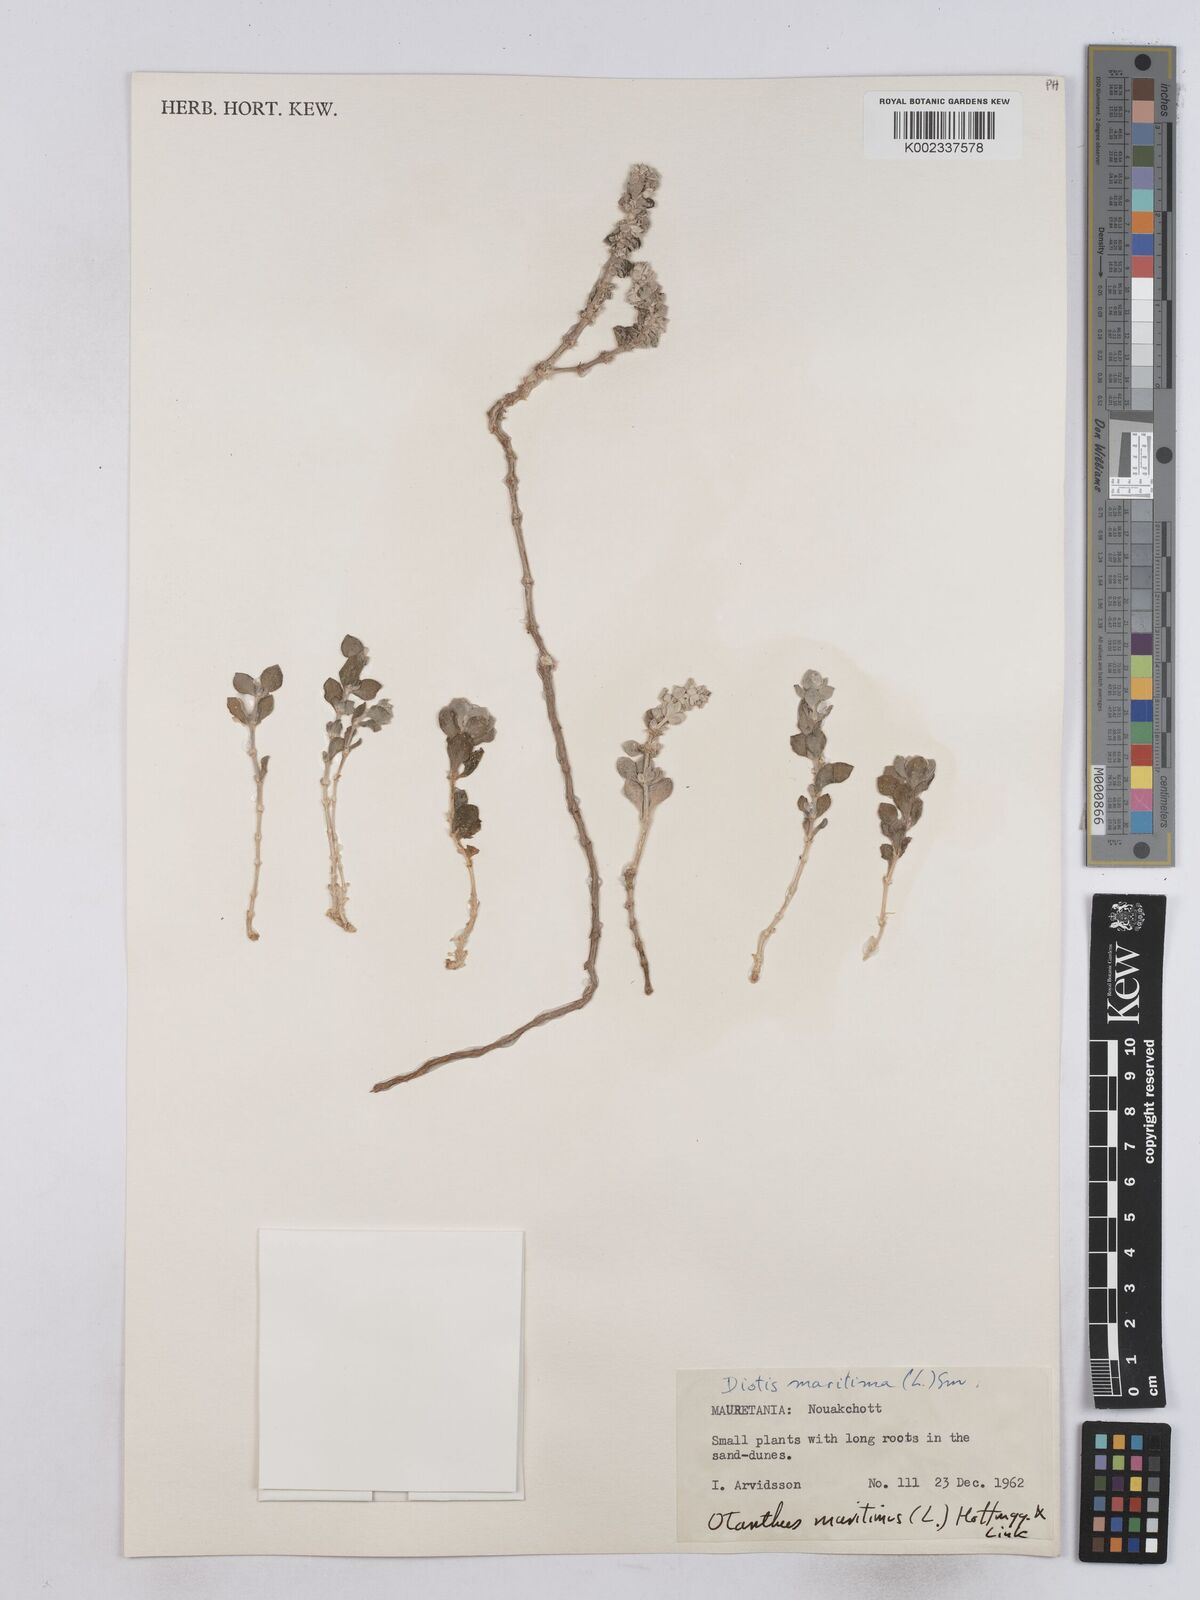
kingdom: Plantae
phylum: Tracheophyta
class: Magnoliopsida
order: Asterales
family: Asteraceae
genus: Achillea
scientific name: Achillea maritima
